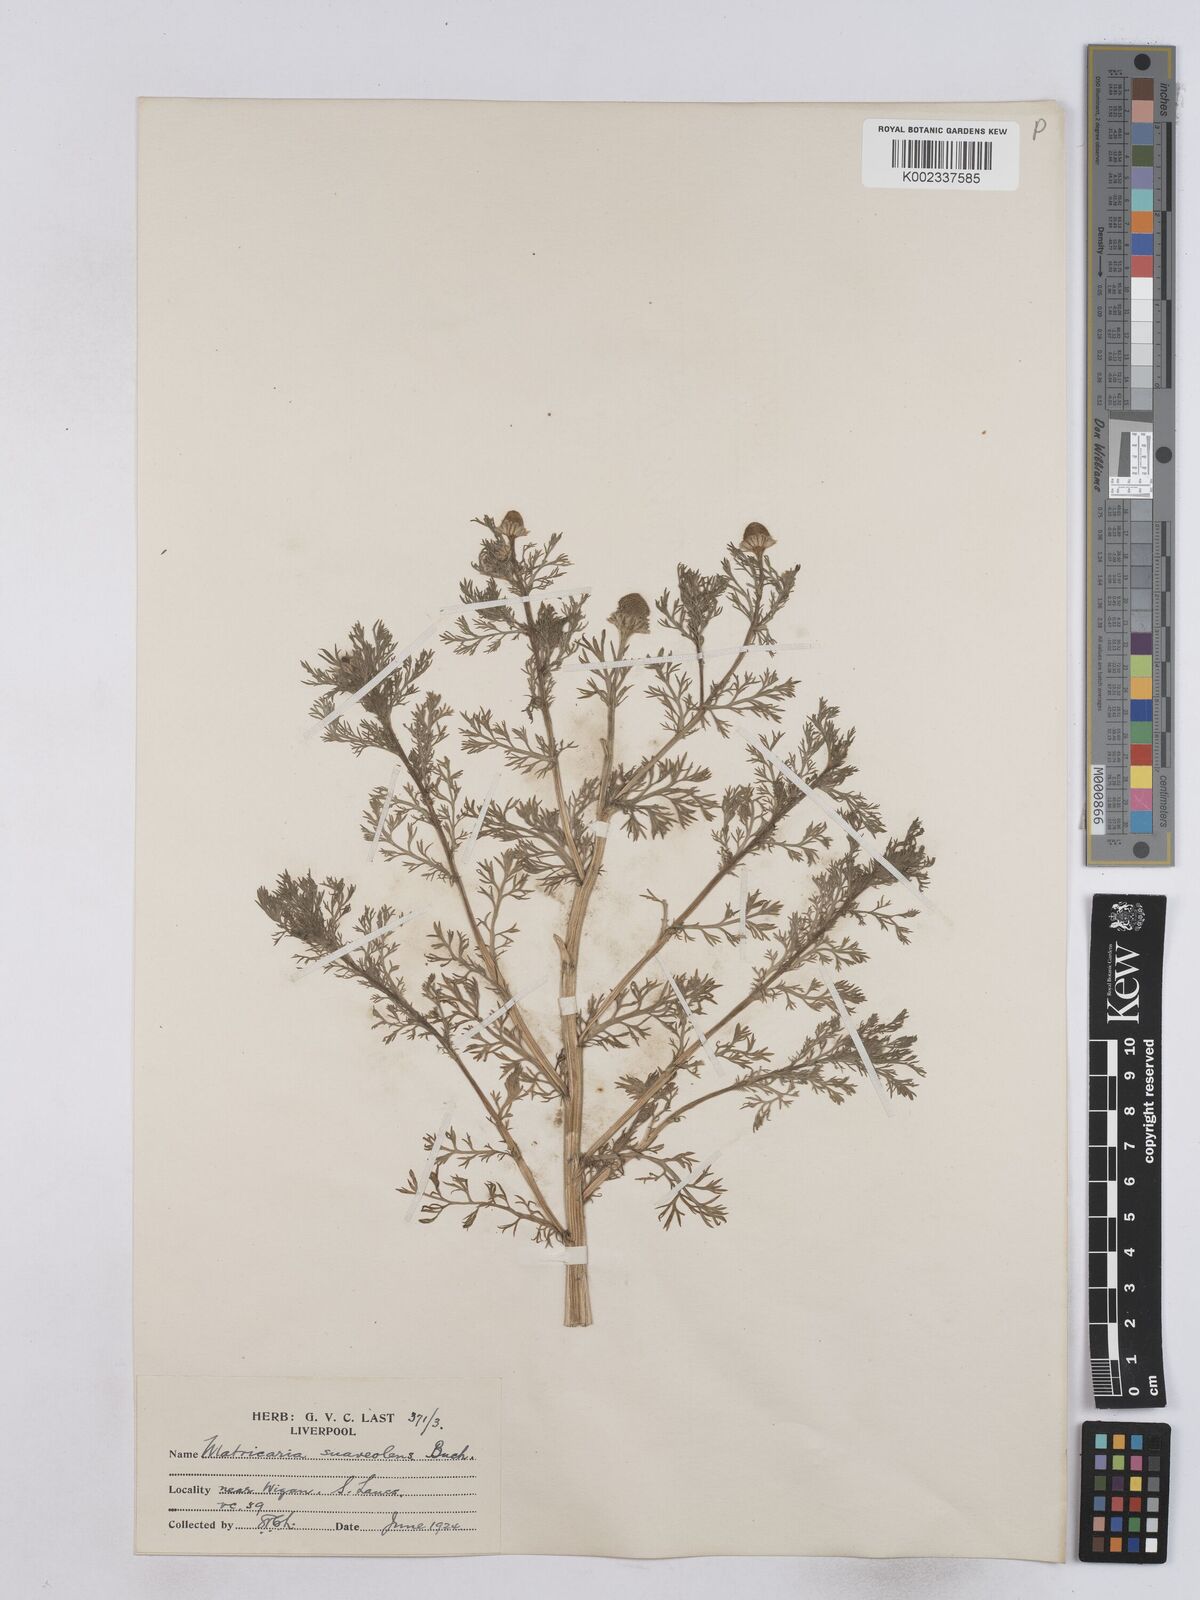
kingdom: Plantae
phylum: Tracheophyta
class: Magnoliopsida
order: Asterales
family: Asteraceae
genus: Matricaria
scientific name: Matricaria discoidea
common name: Disc mayweed
